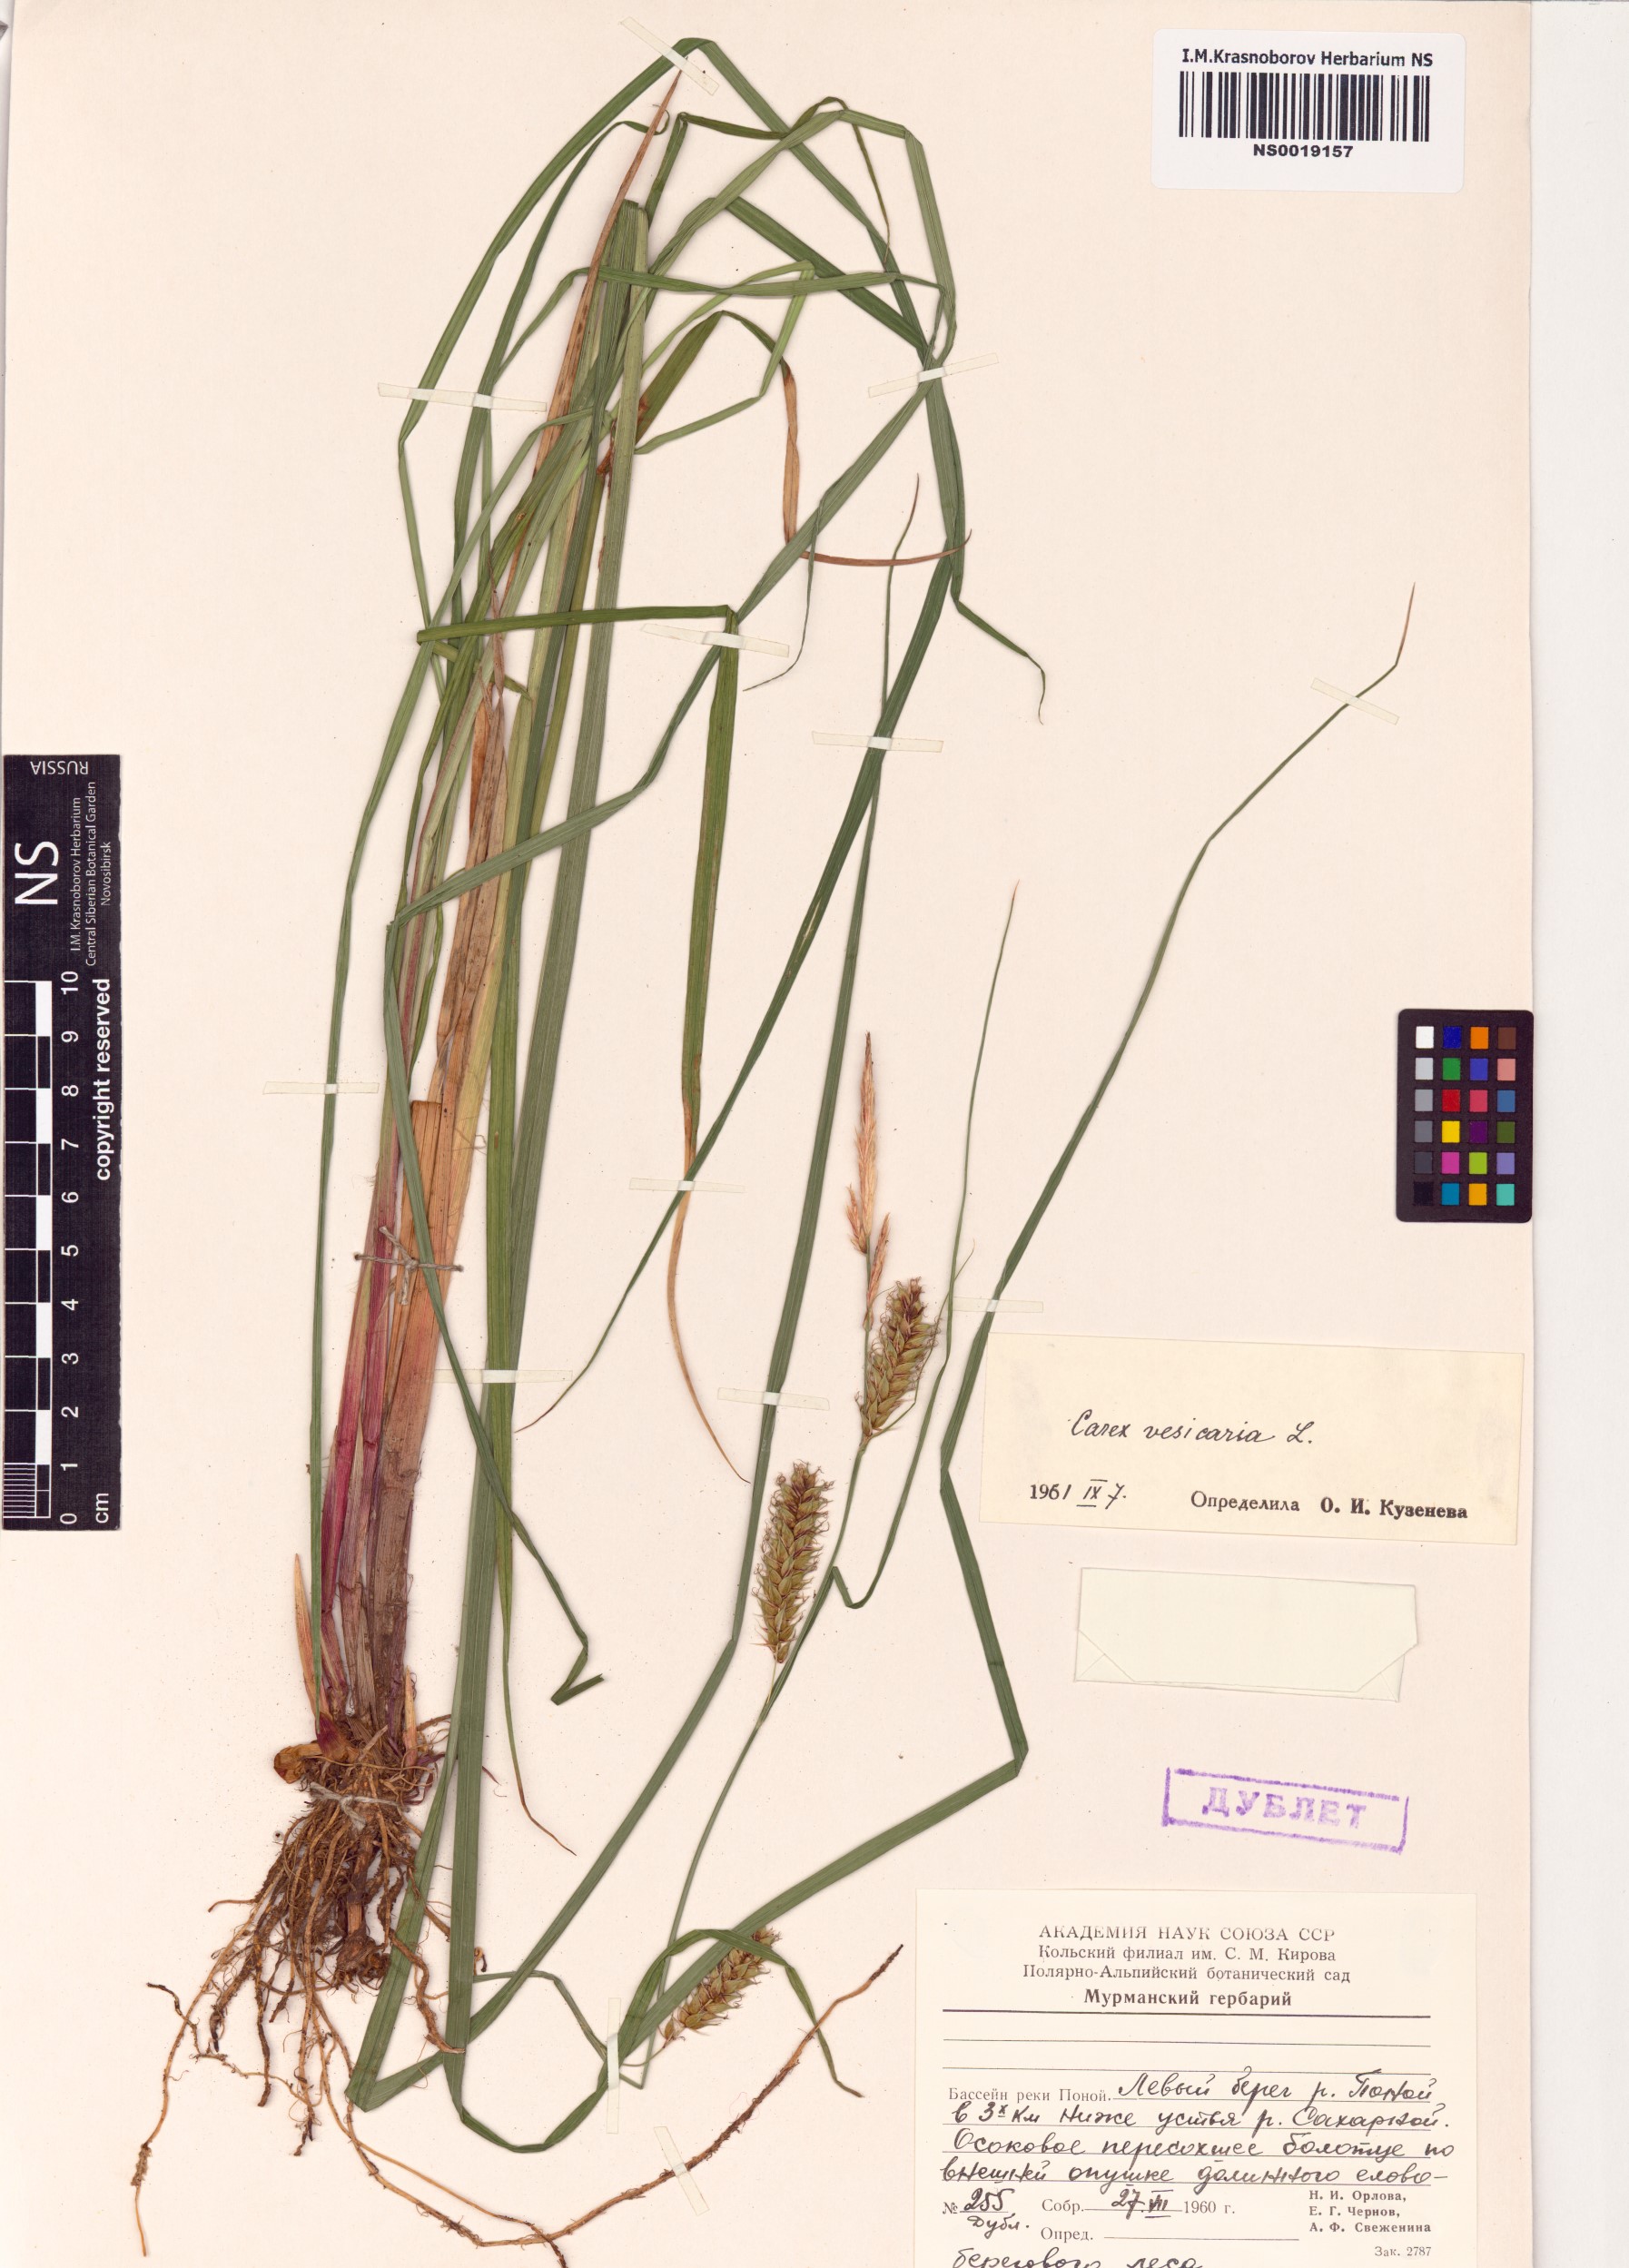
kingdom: Plantae
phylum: Tracheophyta
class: Liliopsida
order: Poales
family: Cyperaceae
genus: Carex
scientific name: Carex vesicaria
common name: Bladder-sedge
